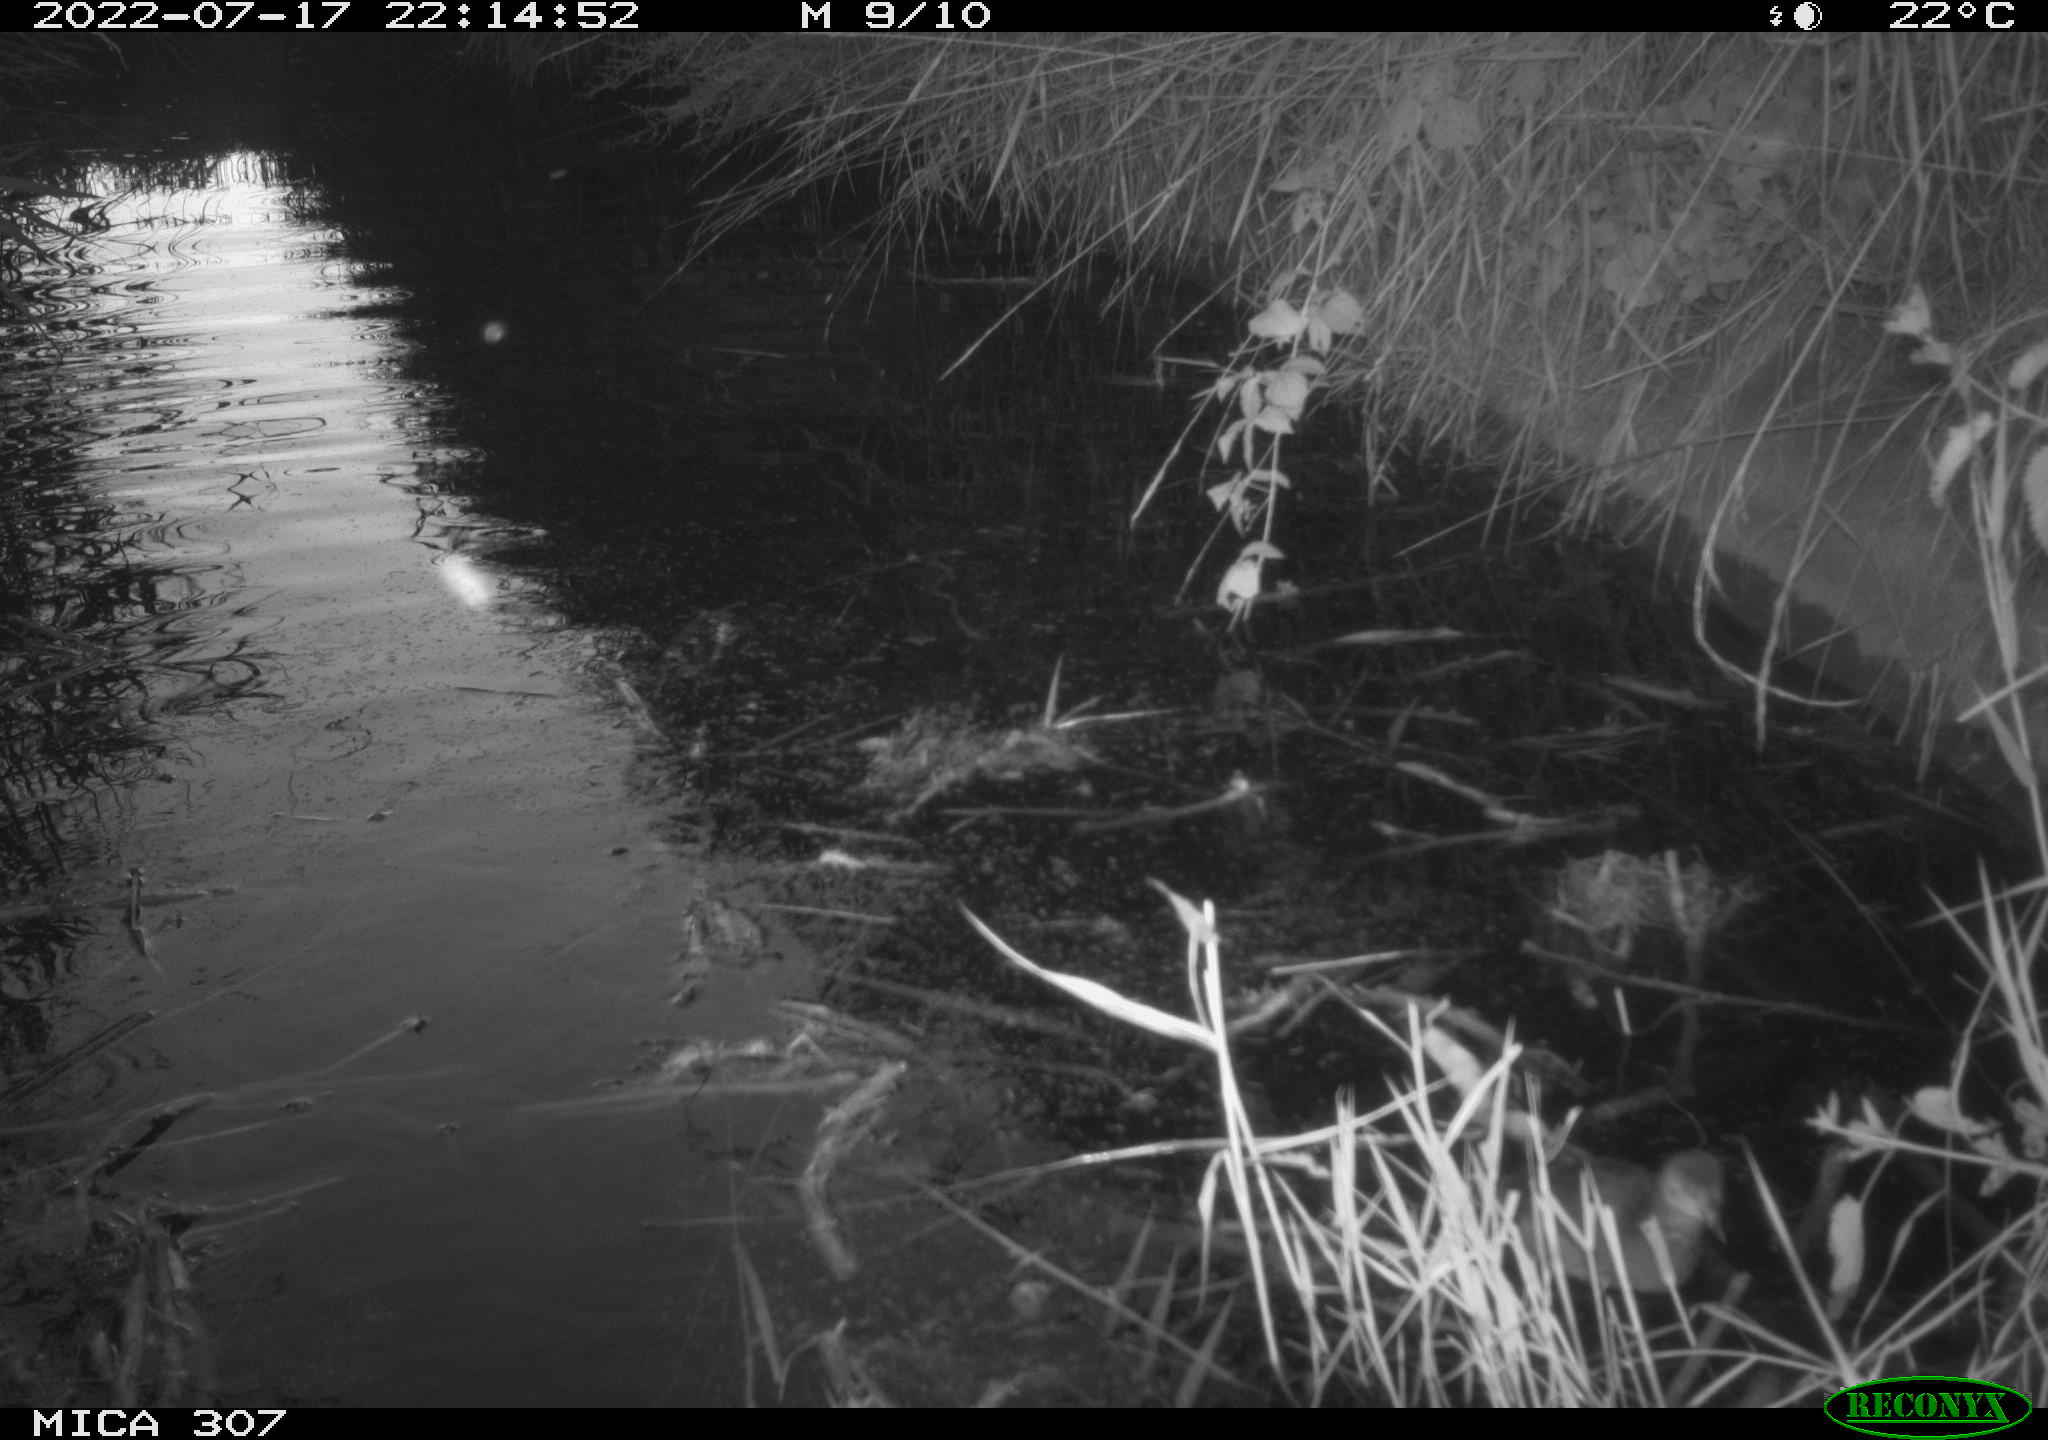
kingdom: Animalia
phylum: Chordata
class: Aves
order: Gruiformes
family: Rallidae
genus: Gallinula
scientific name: Gallinula chloropus
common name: Common moorhen
